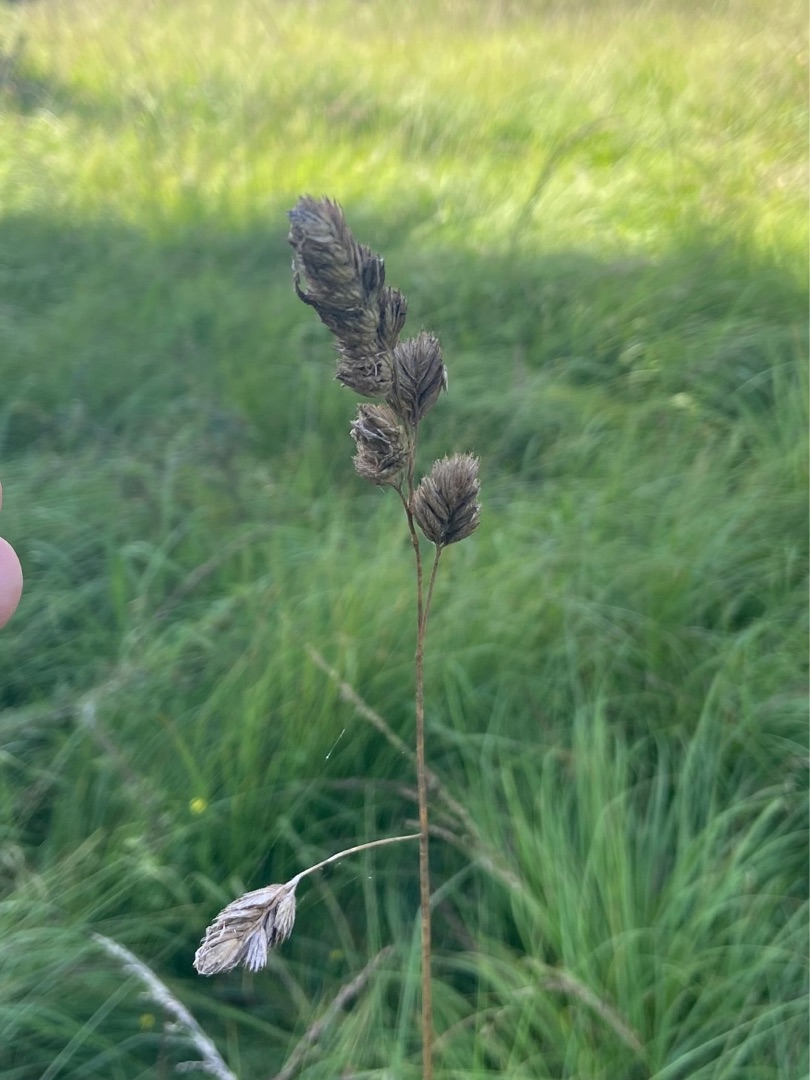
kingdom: Plantae
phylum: Tracheophyta
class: Liliopsida
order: Poales
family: Poaceae
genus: Dactylis
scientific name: Dactylis glomerata
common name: Almindelig hundegræs
